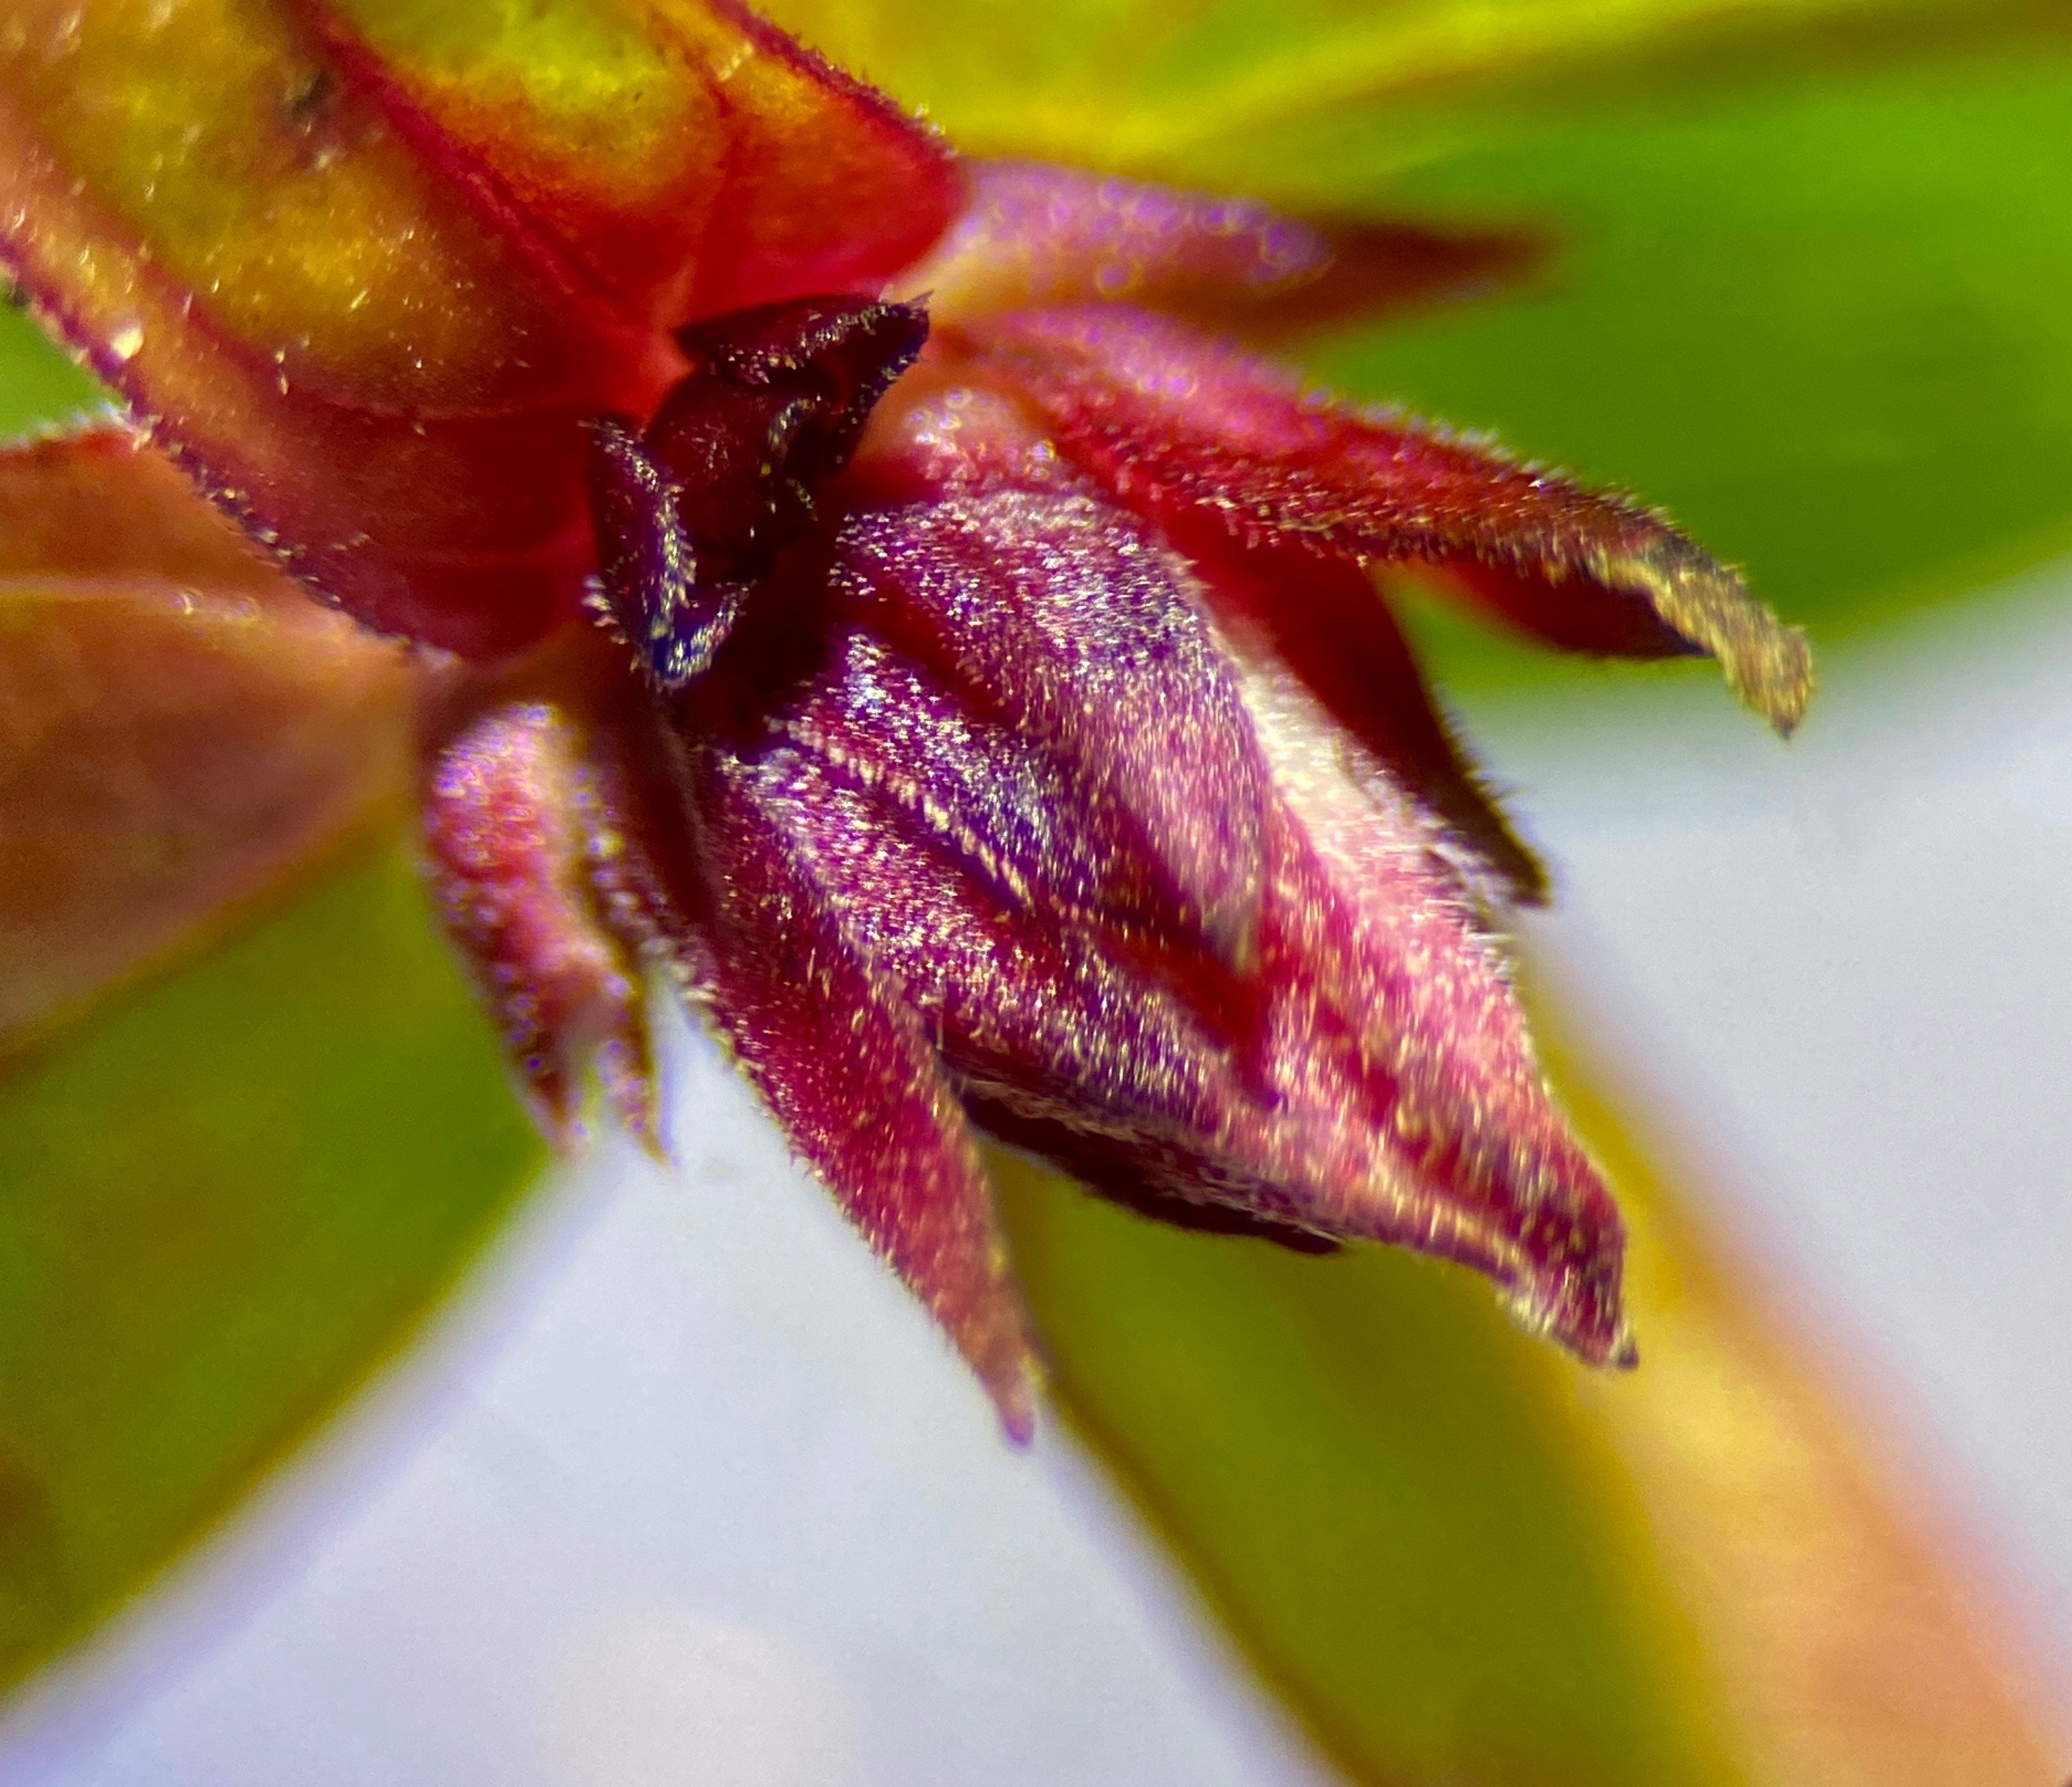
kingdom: Animalia
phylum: Arthropoda
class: Insecta
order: Diptera
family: Cecidomyiidae
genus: Bayeriola
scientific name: Bayeriola salicariae
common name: Kattehalegalmyg
